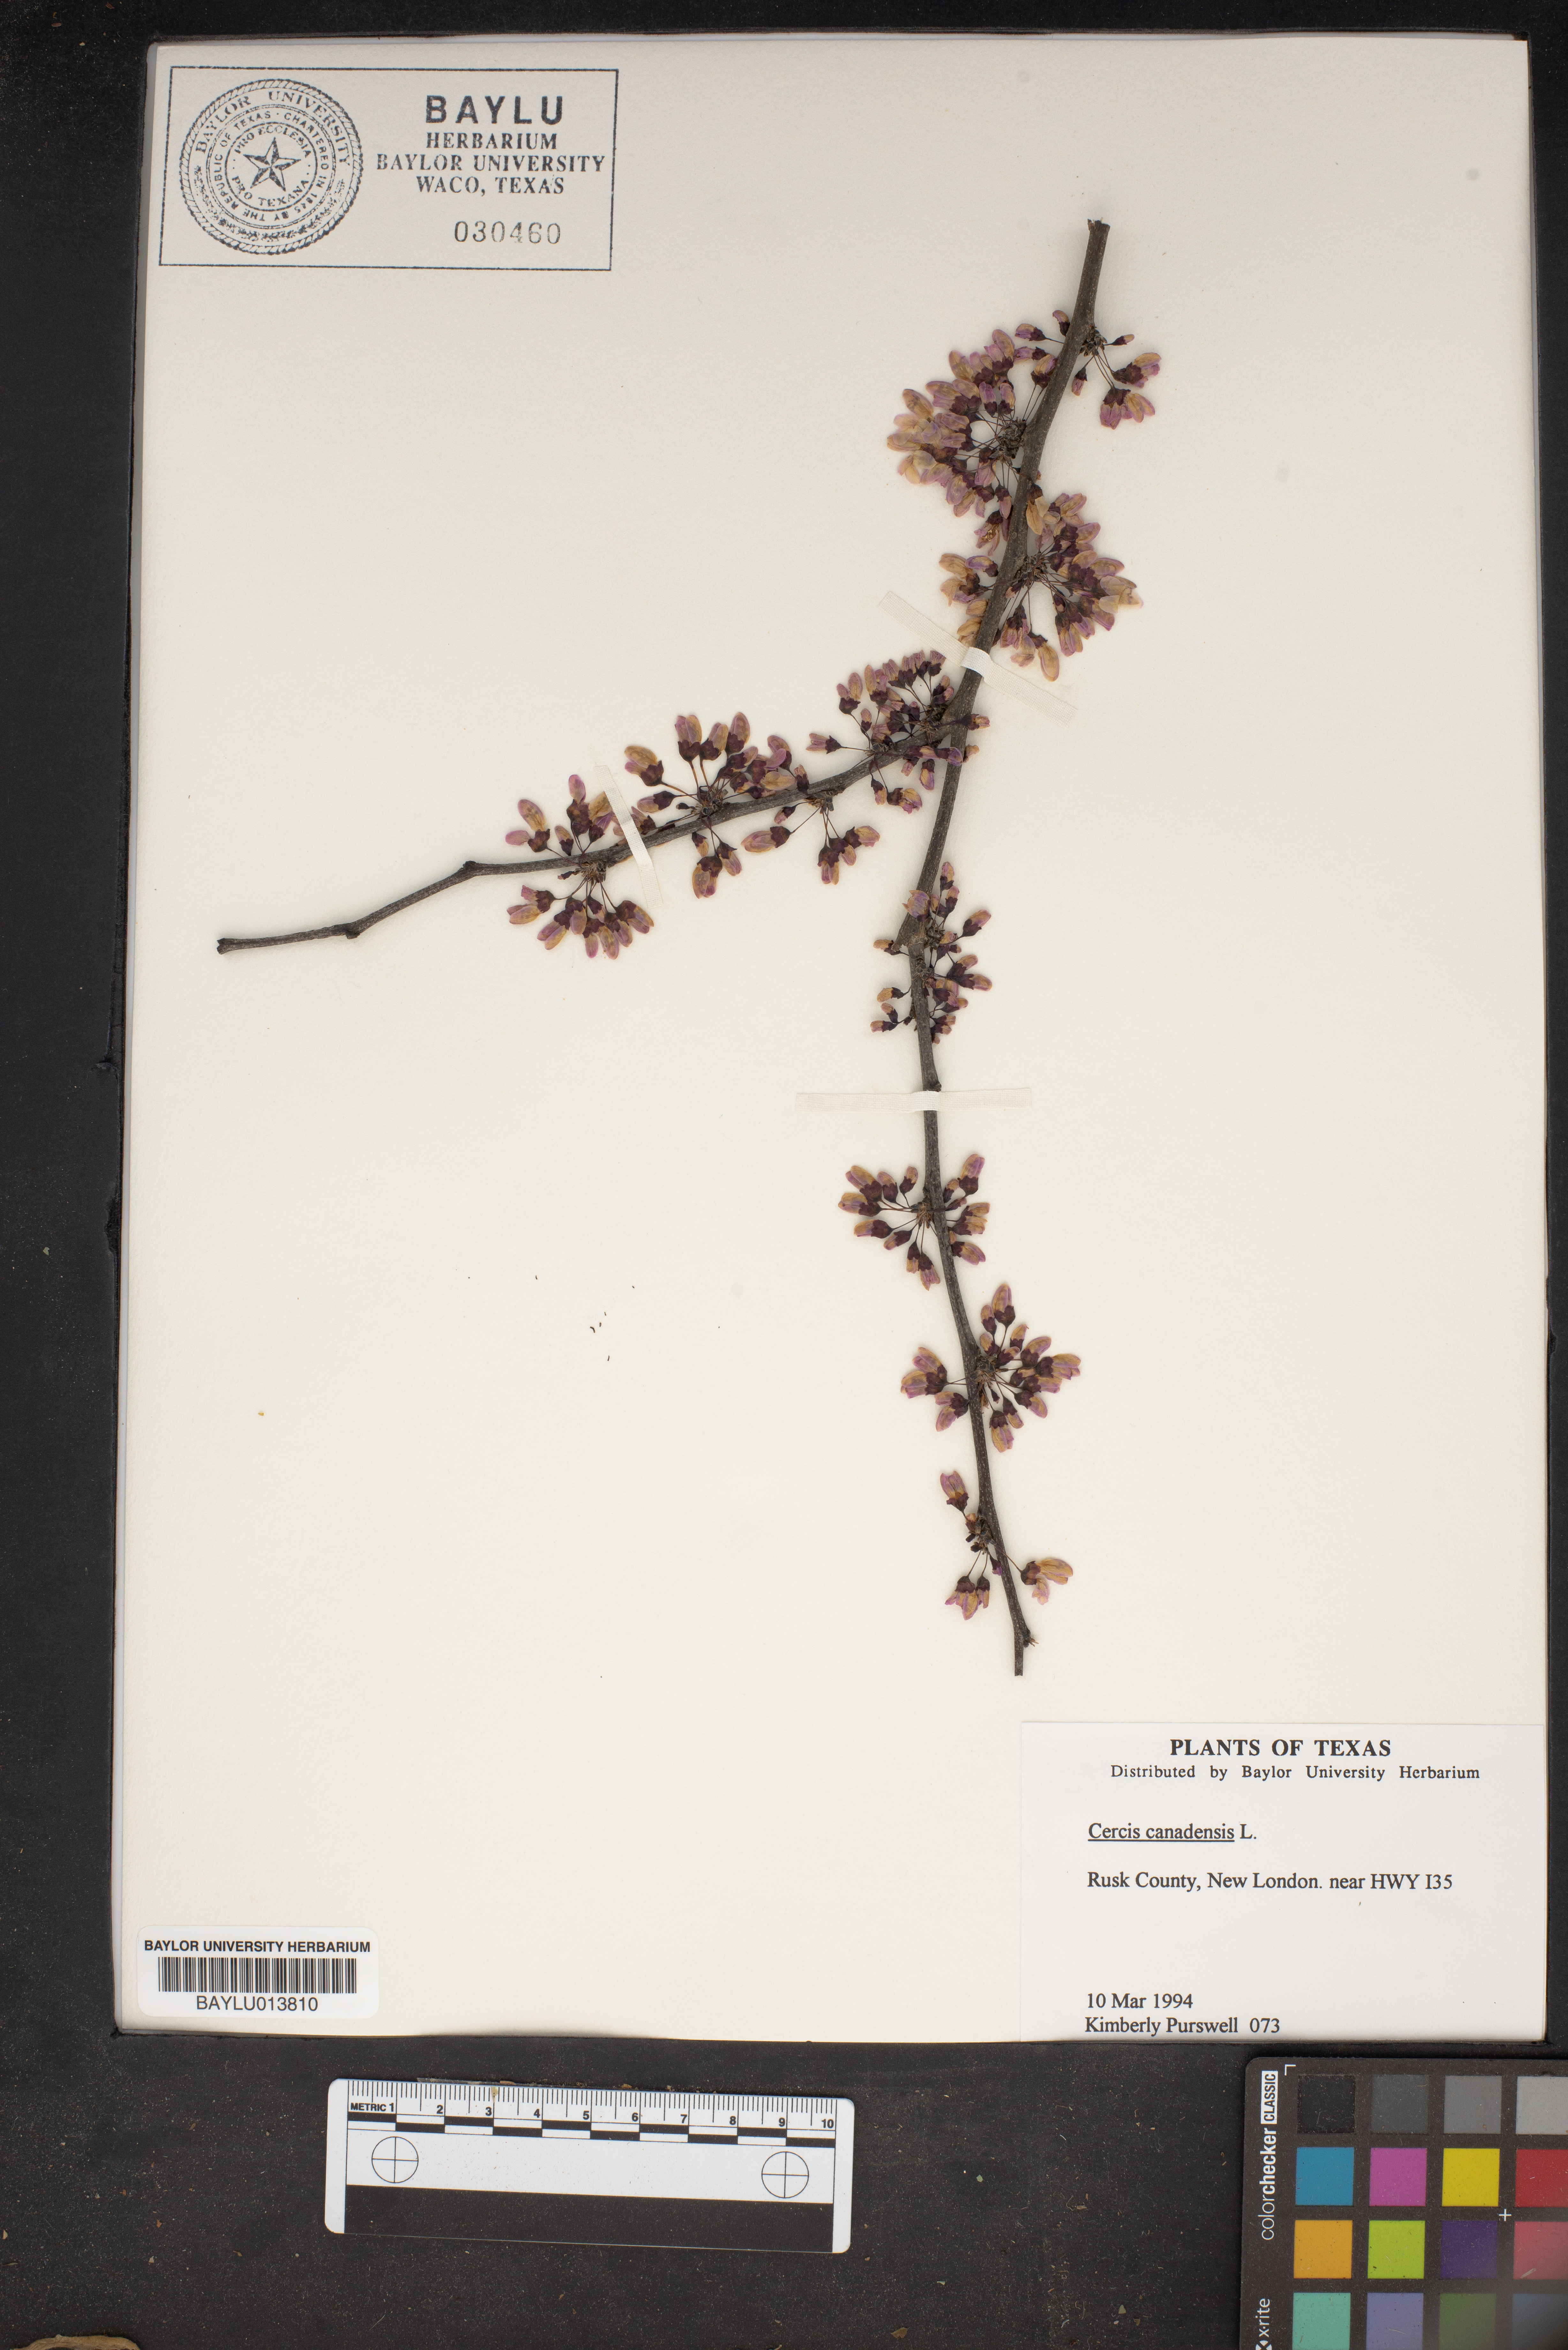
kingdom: Plantae
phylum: Tracheophyta
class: Magnoliopsida
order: Fabales
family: Fabaceae
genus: Cercis
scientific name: Cercis canadensis
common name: Eastern redbud
